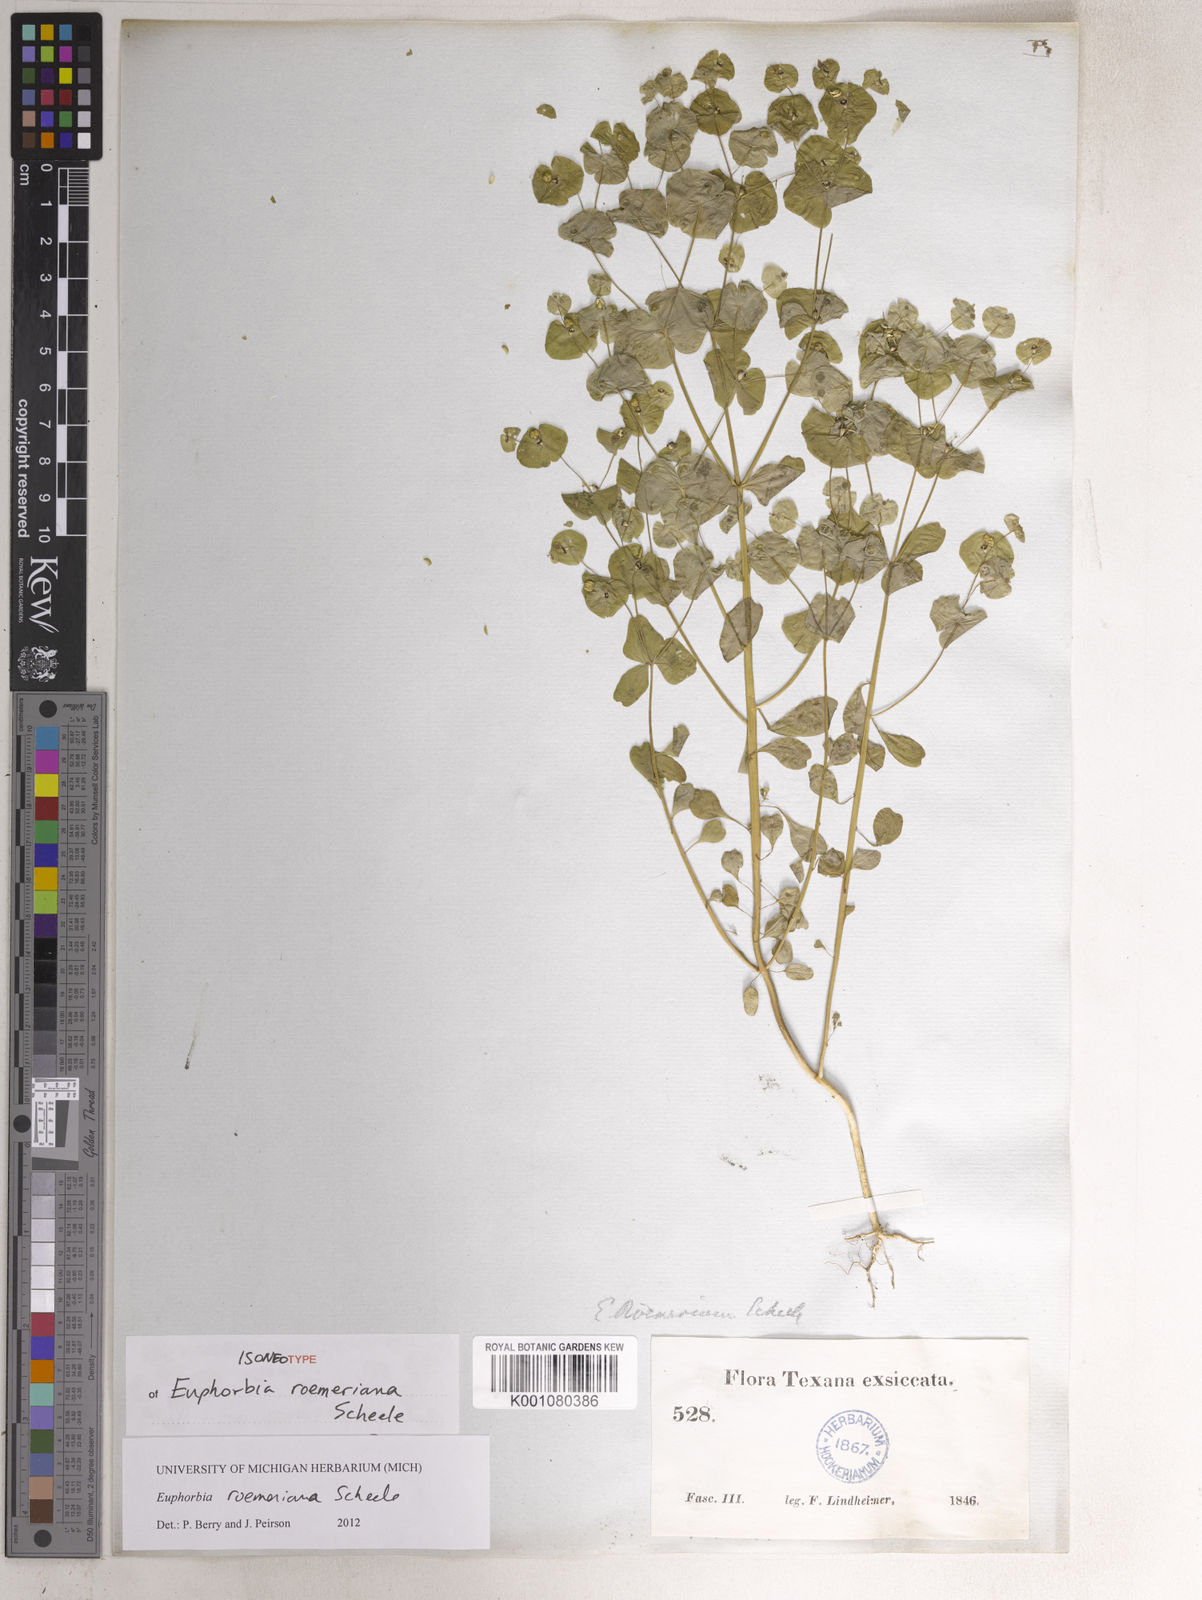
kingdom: Plantae
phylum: Tracheophyta
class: Magnoliopsida
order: Malpighiales
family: Euphorbiaceae
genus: Euphorbia
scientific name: Euphorbia roemeriana
